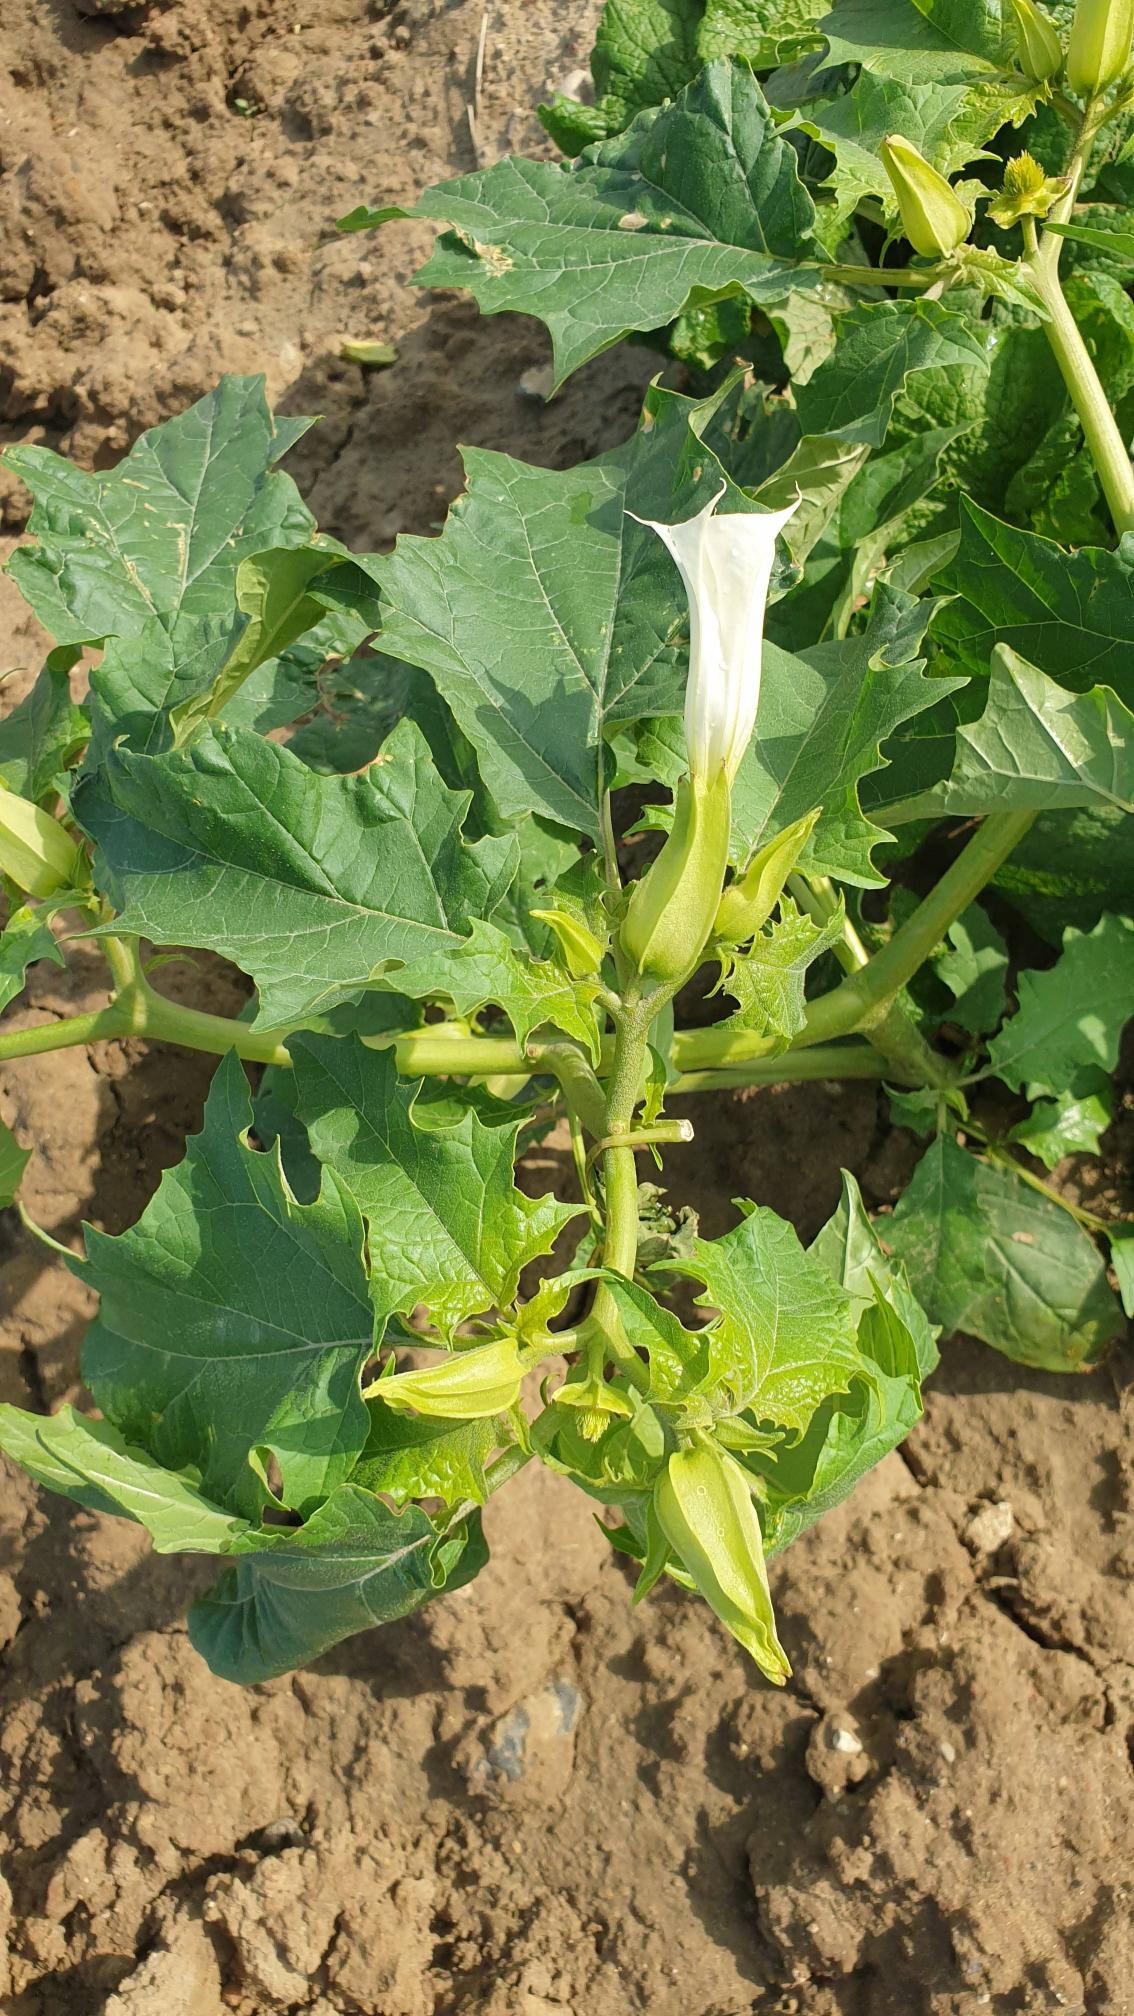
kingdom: Plantae
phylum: Tracheophyta
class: Magnoliopsida
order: Solanales
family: Solanaceae
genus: Datura
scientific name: Datura stramonium
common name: Pigæble
